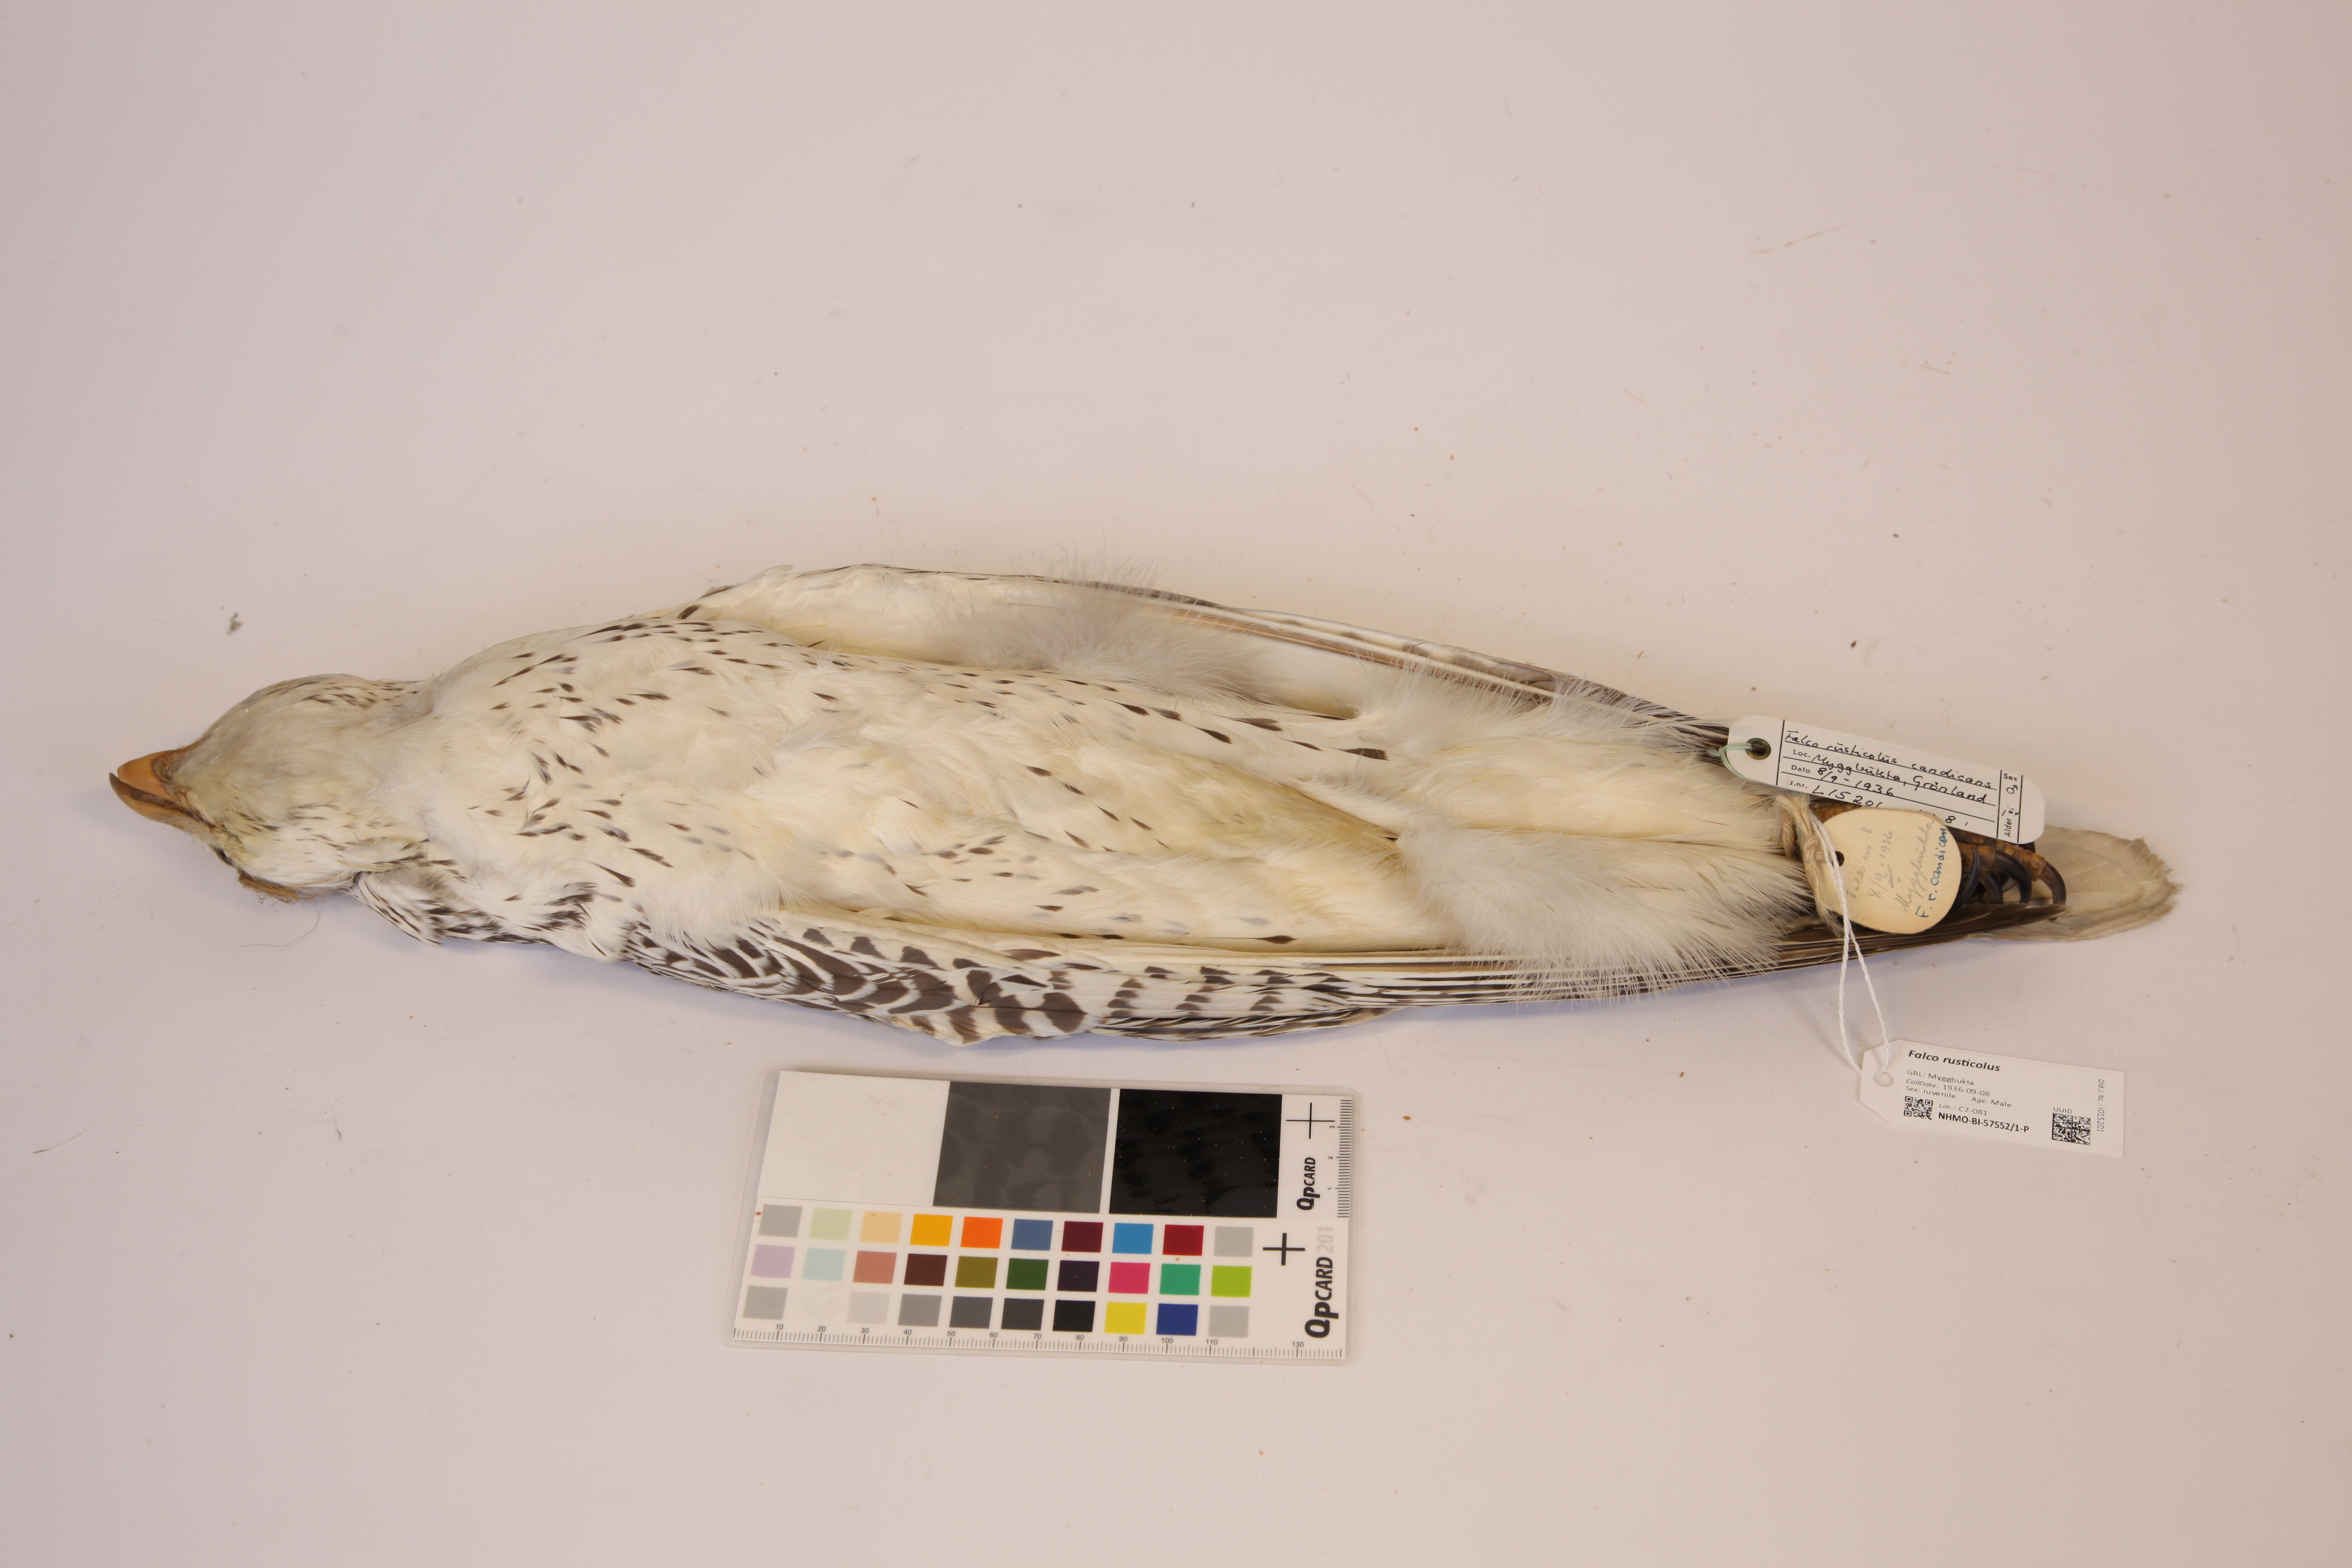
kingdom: Animalia
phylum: Chordata
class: Aves
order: Falconiformes
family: Falconidae
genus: Falco
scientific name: Falco rusticolus
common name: Gyrfalcon
